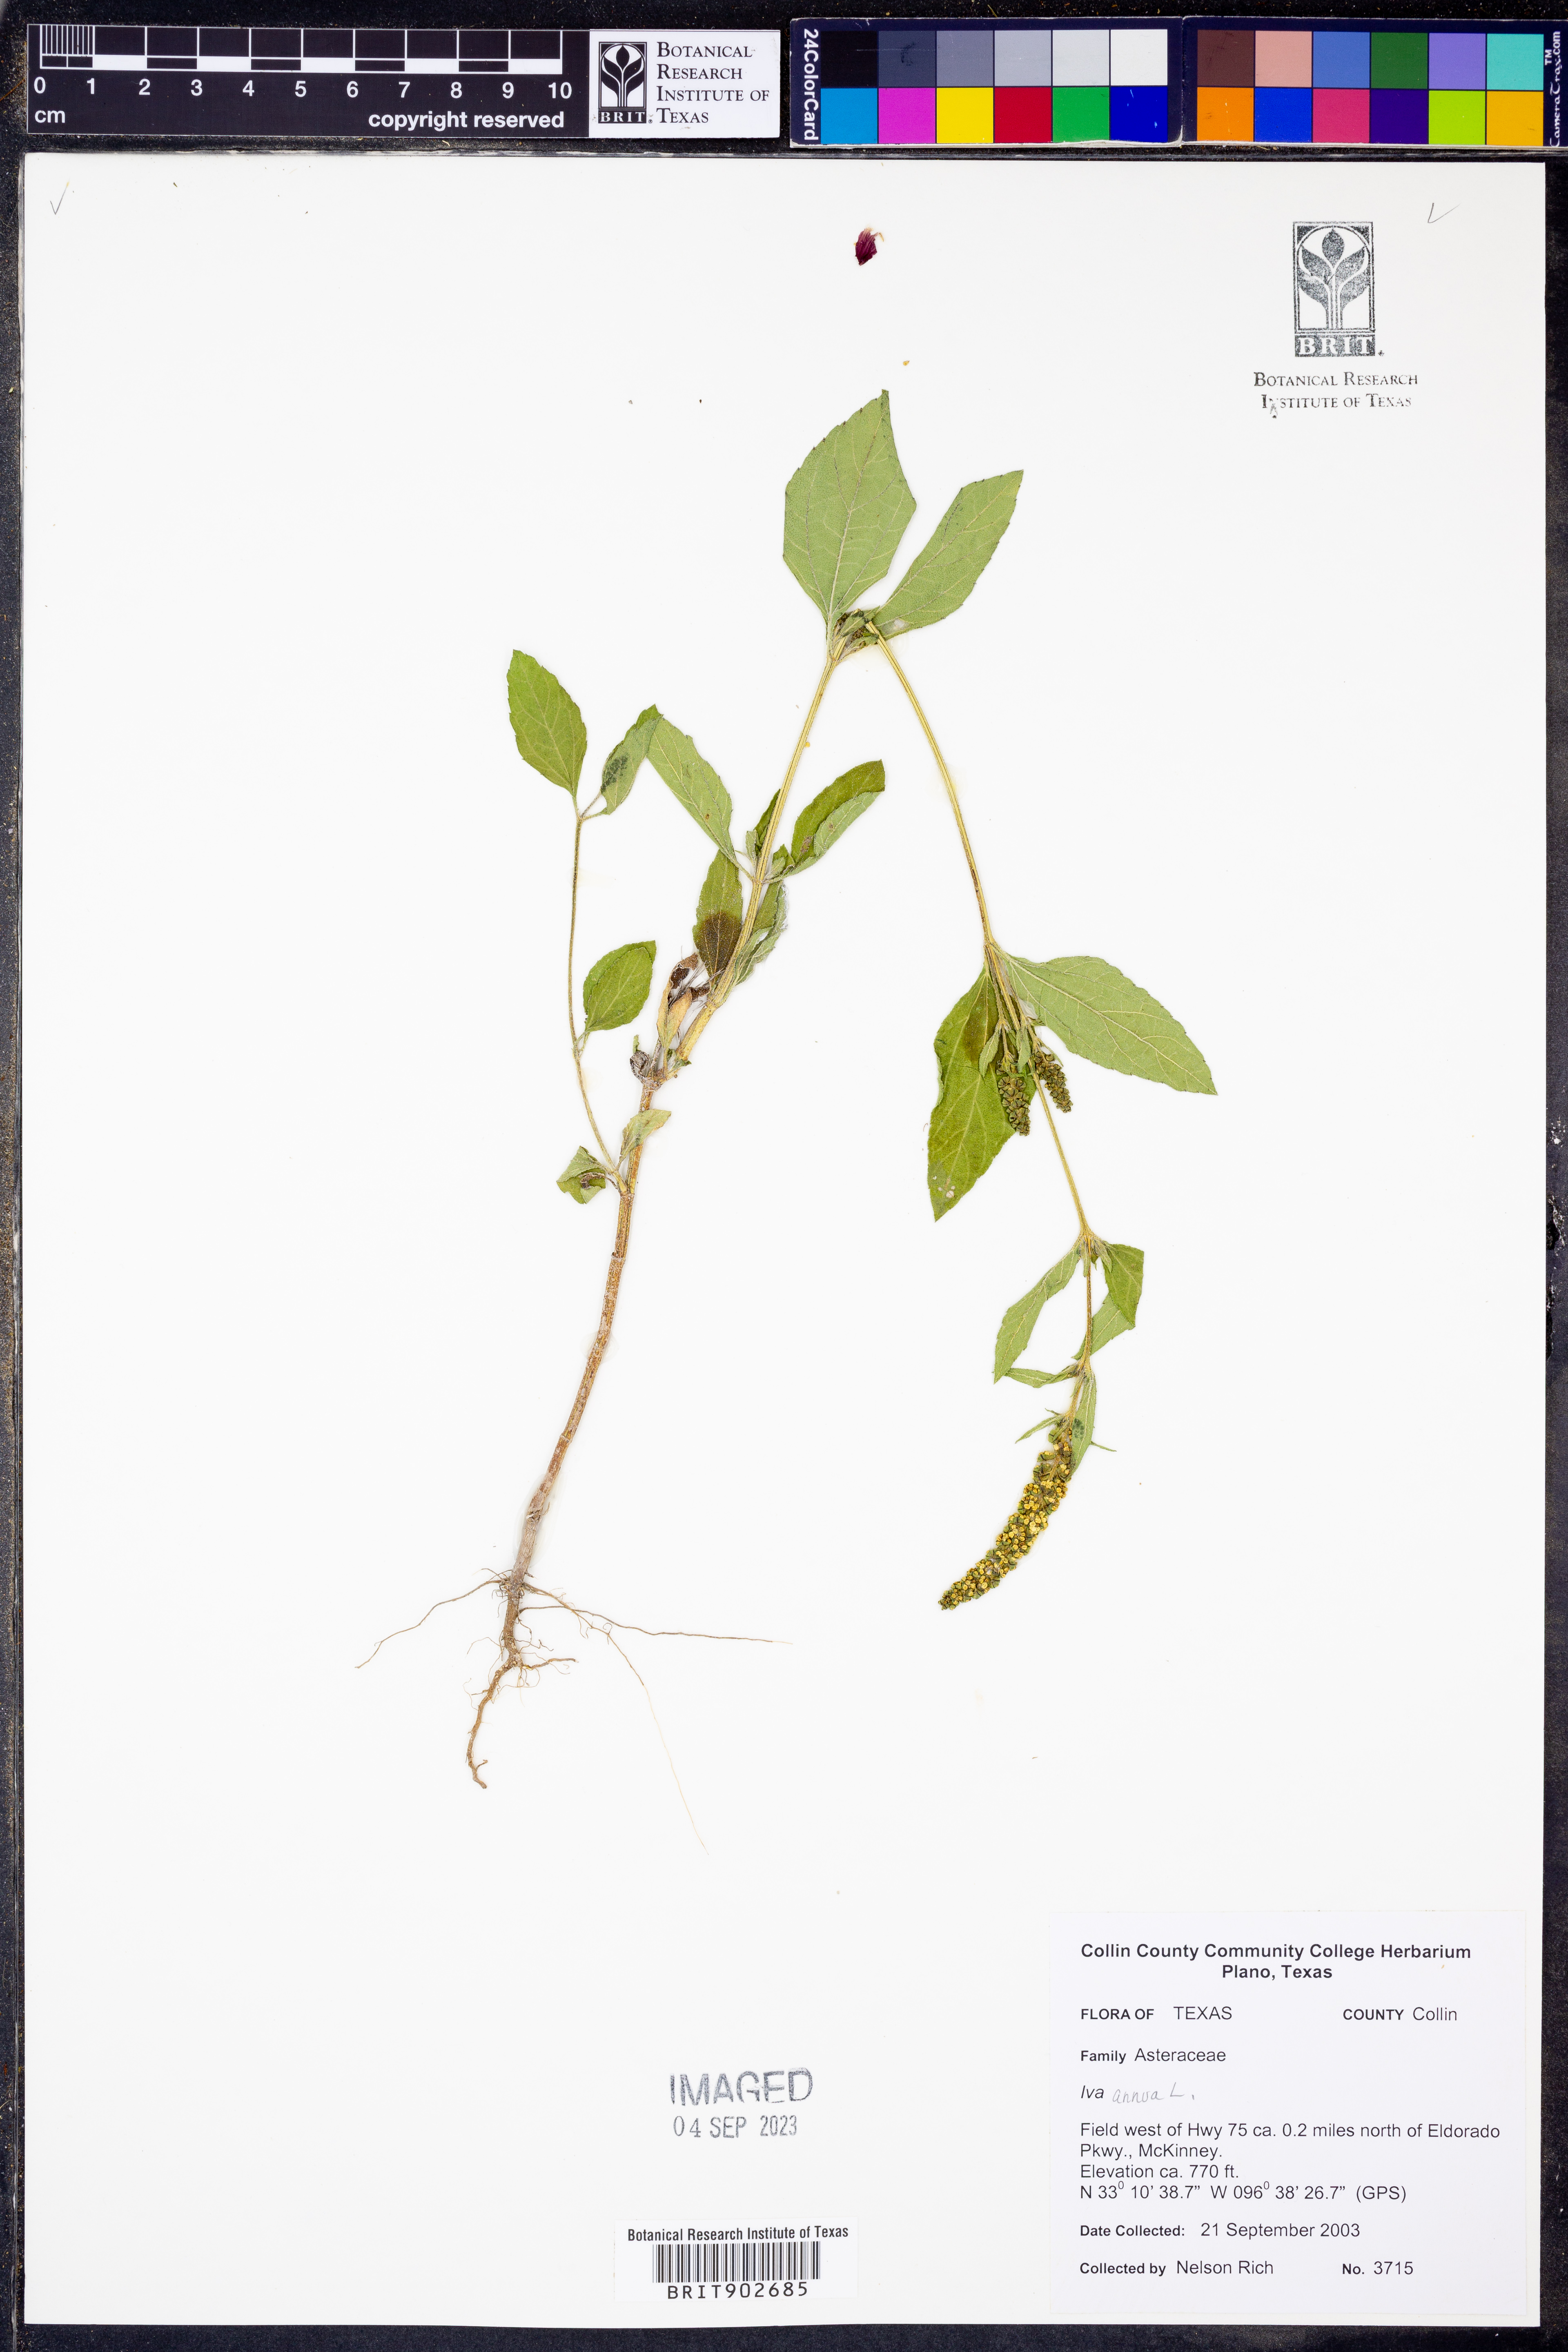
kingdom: Plantae
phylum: Tracheophyta
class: Magnoliopsida
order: Asterales
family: Asteraceae
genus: Iva
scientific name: Iva annua
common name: Marsh-elder
